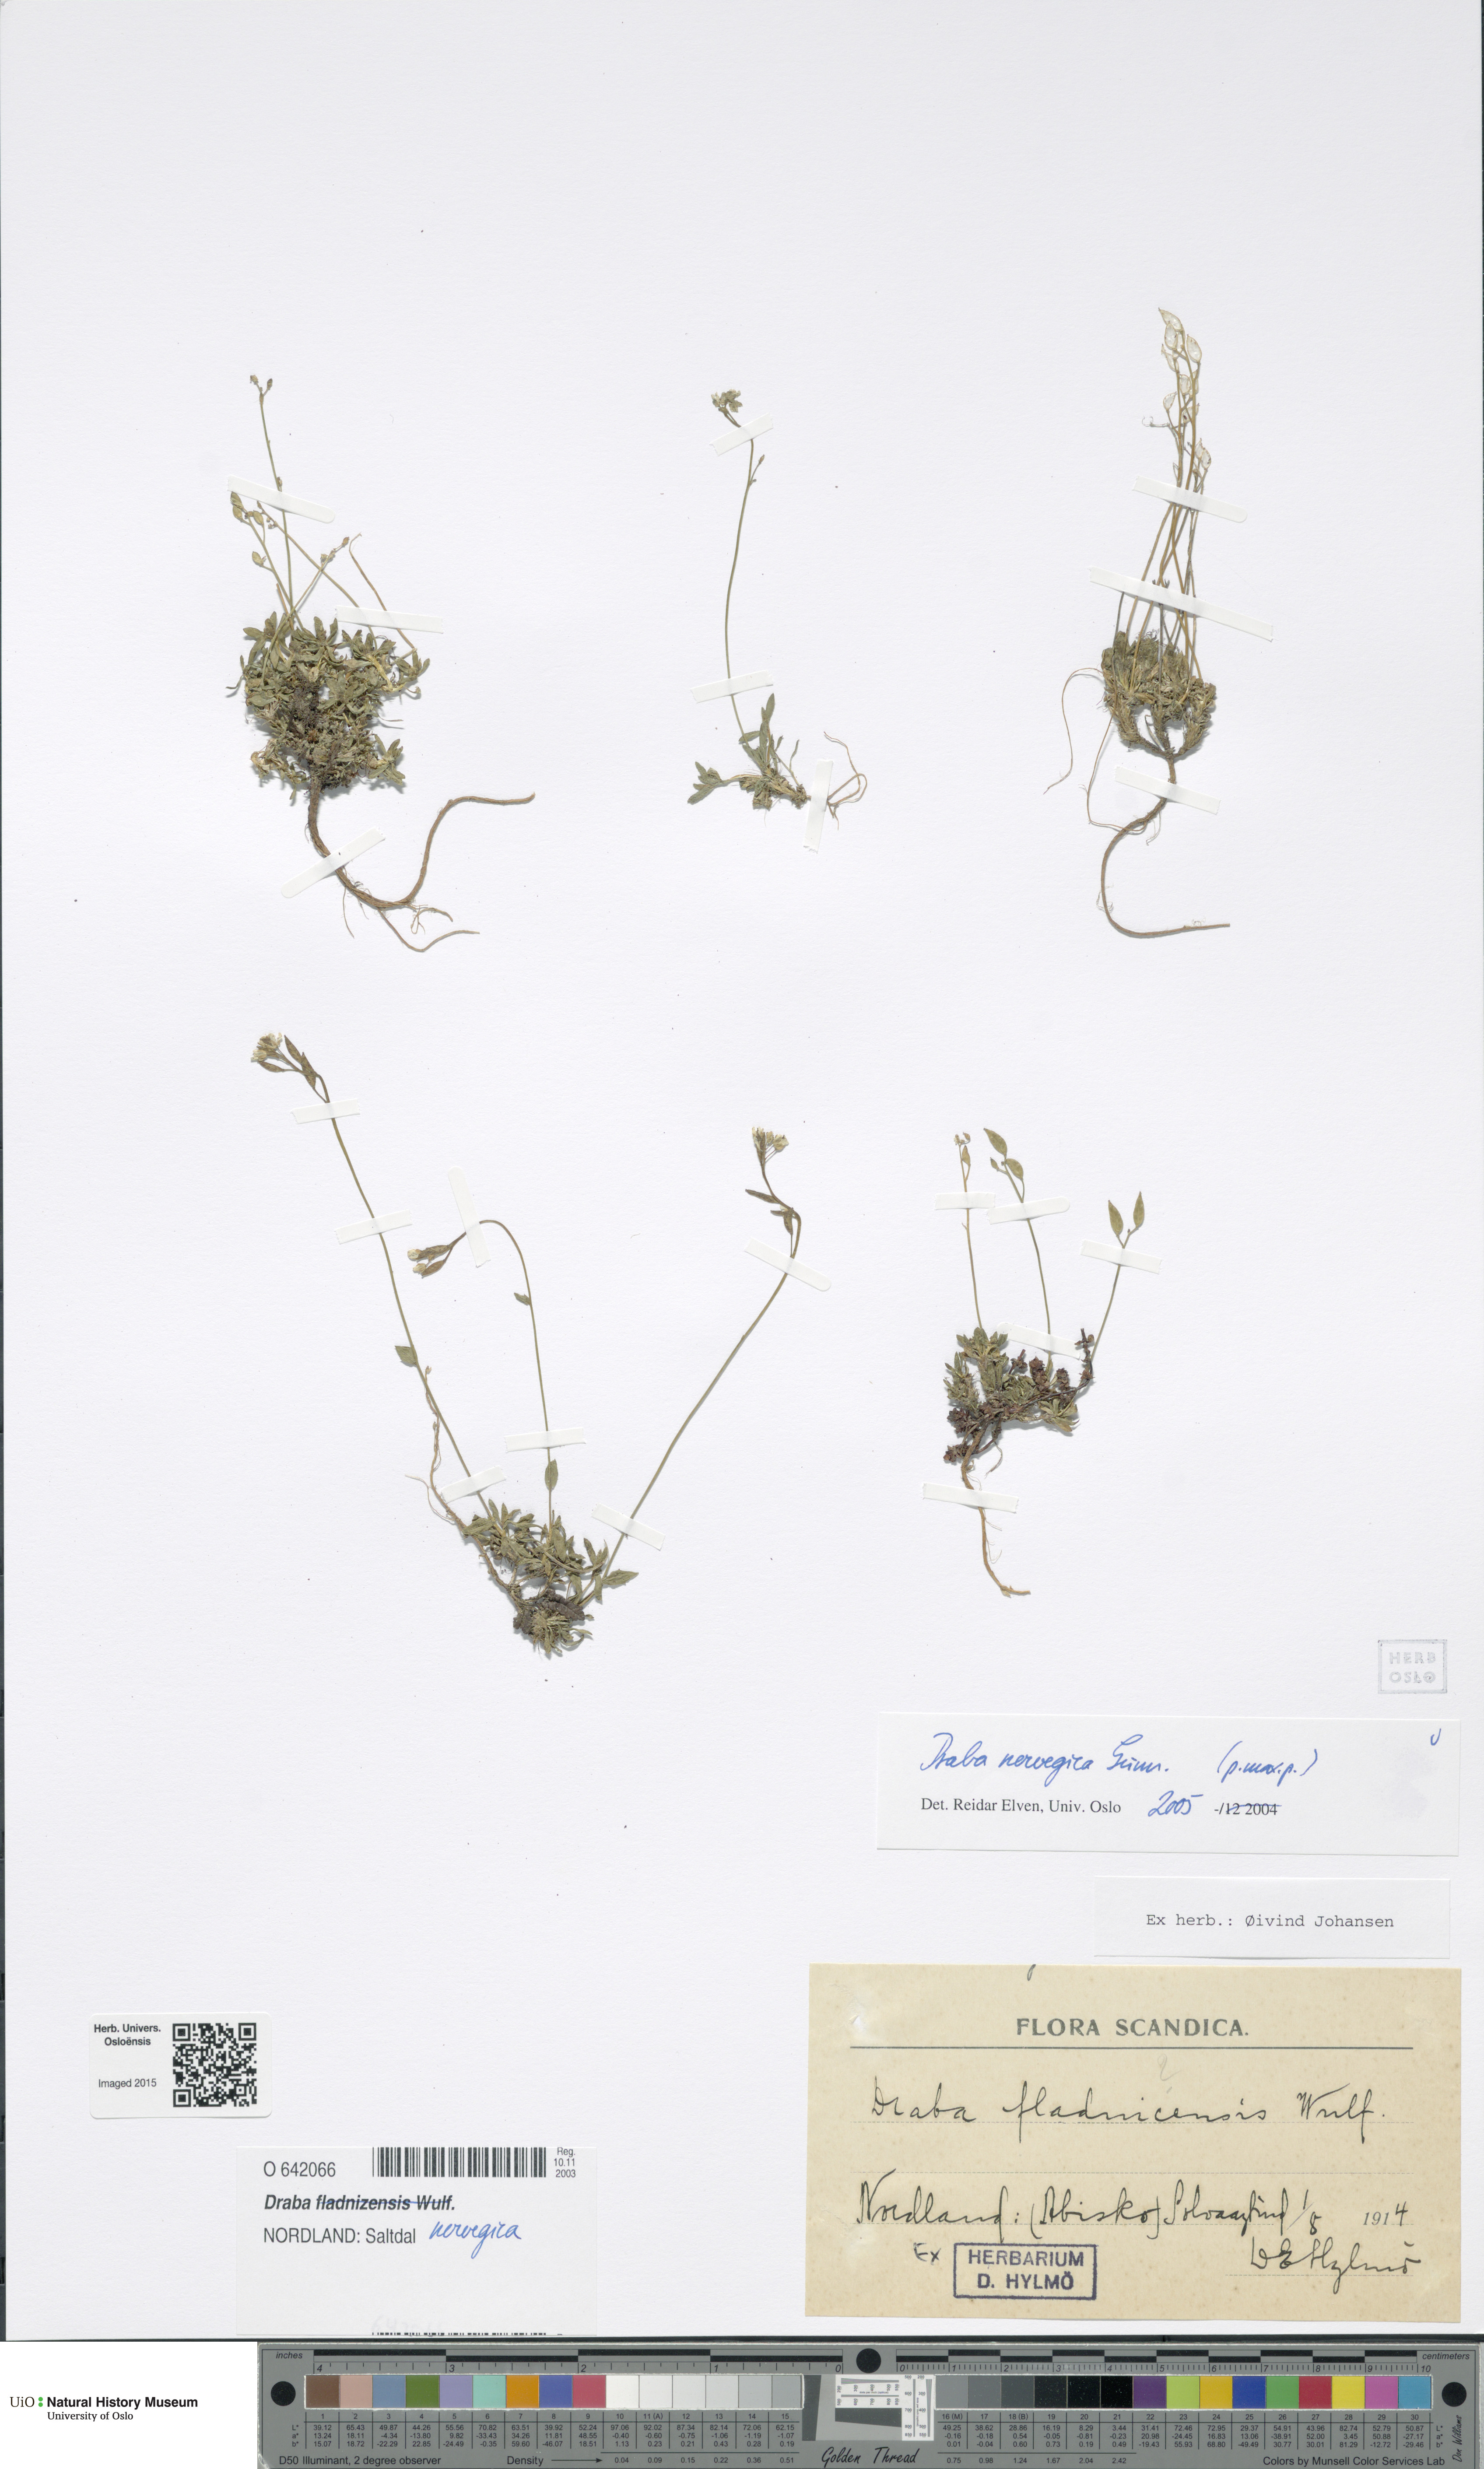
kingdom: Plantae
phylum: Tracheophyta
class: Magnoliopsida
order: Brassicales
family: Brassicaceae
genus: Draba
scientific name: Draba norvegica
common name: Rock whitlowgrass
